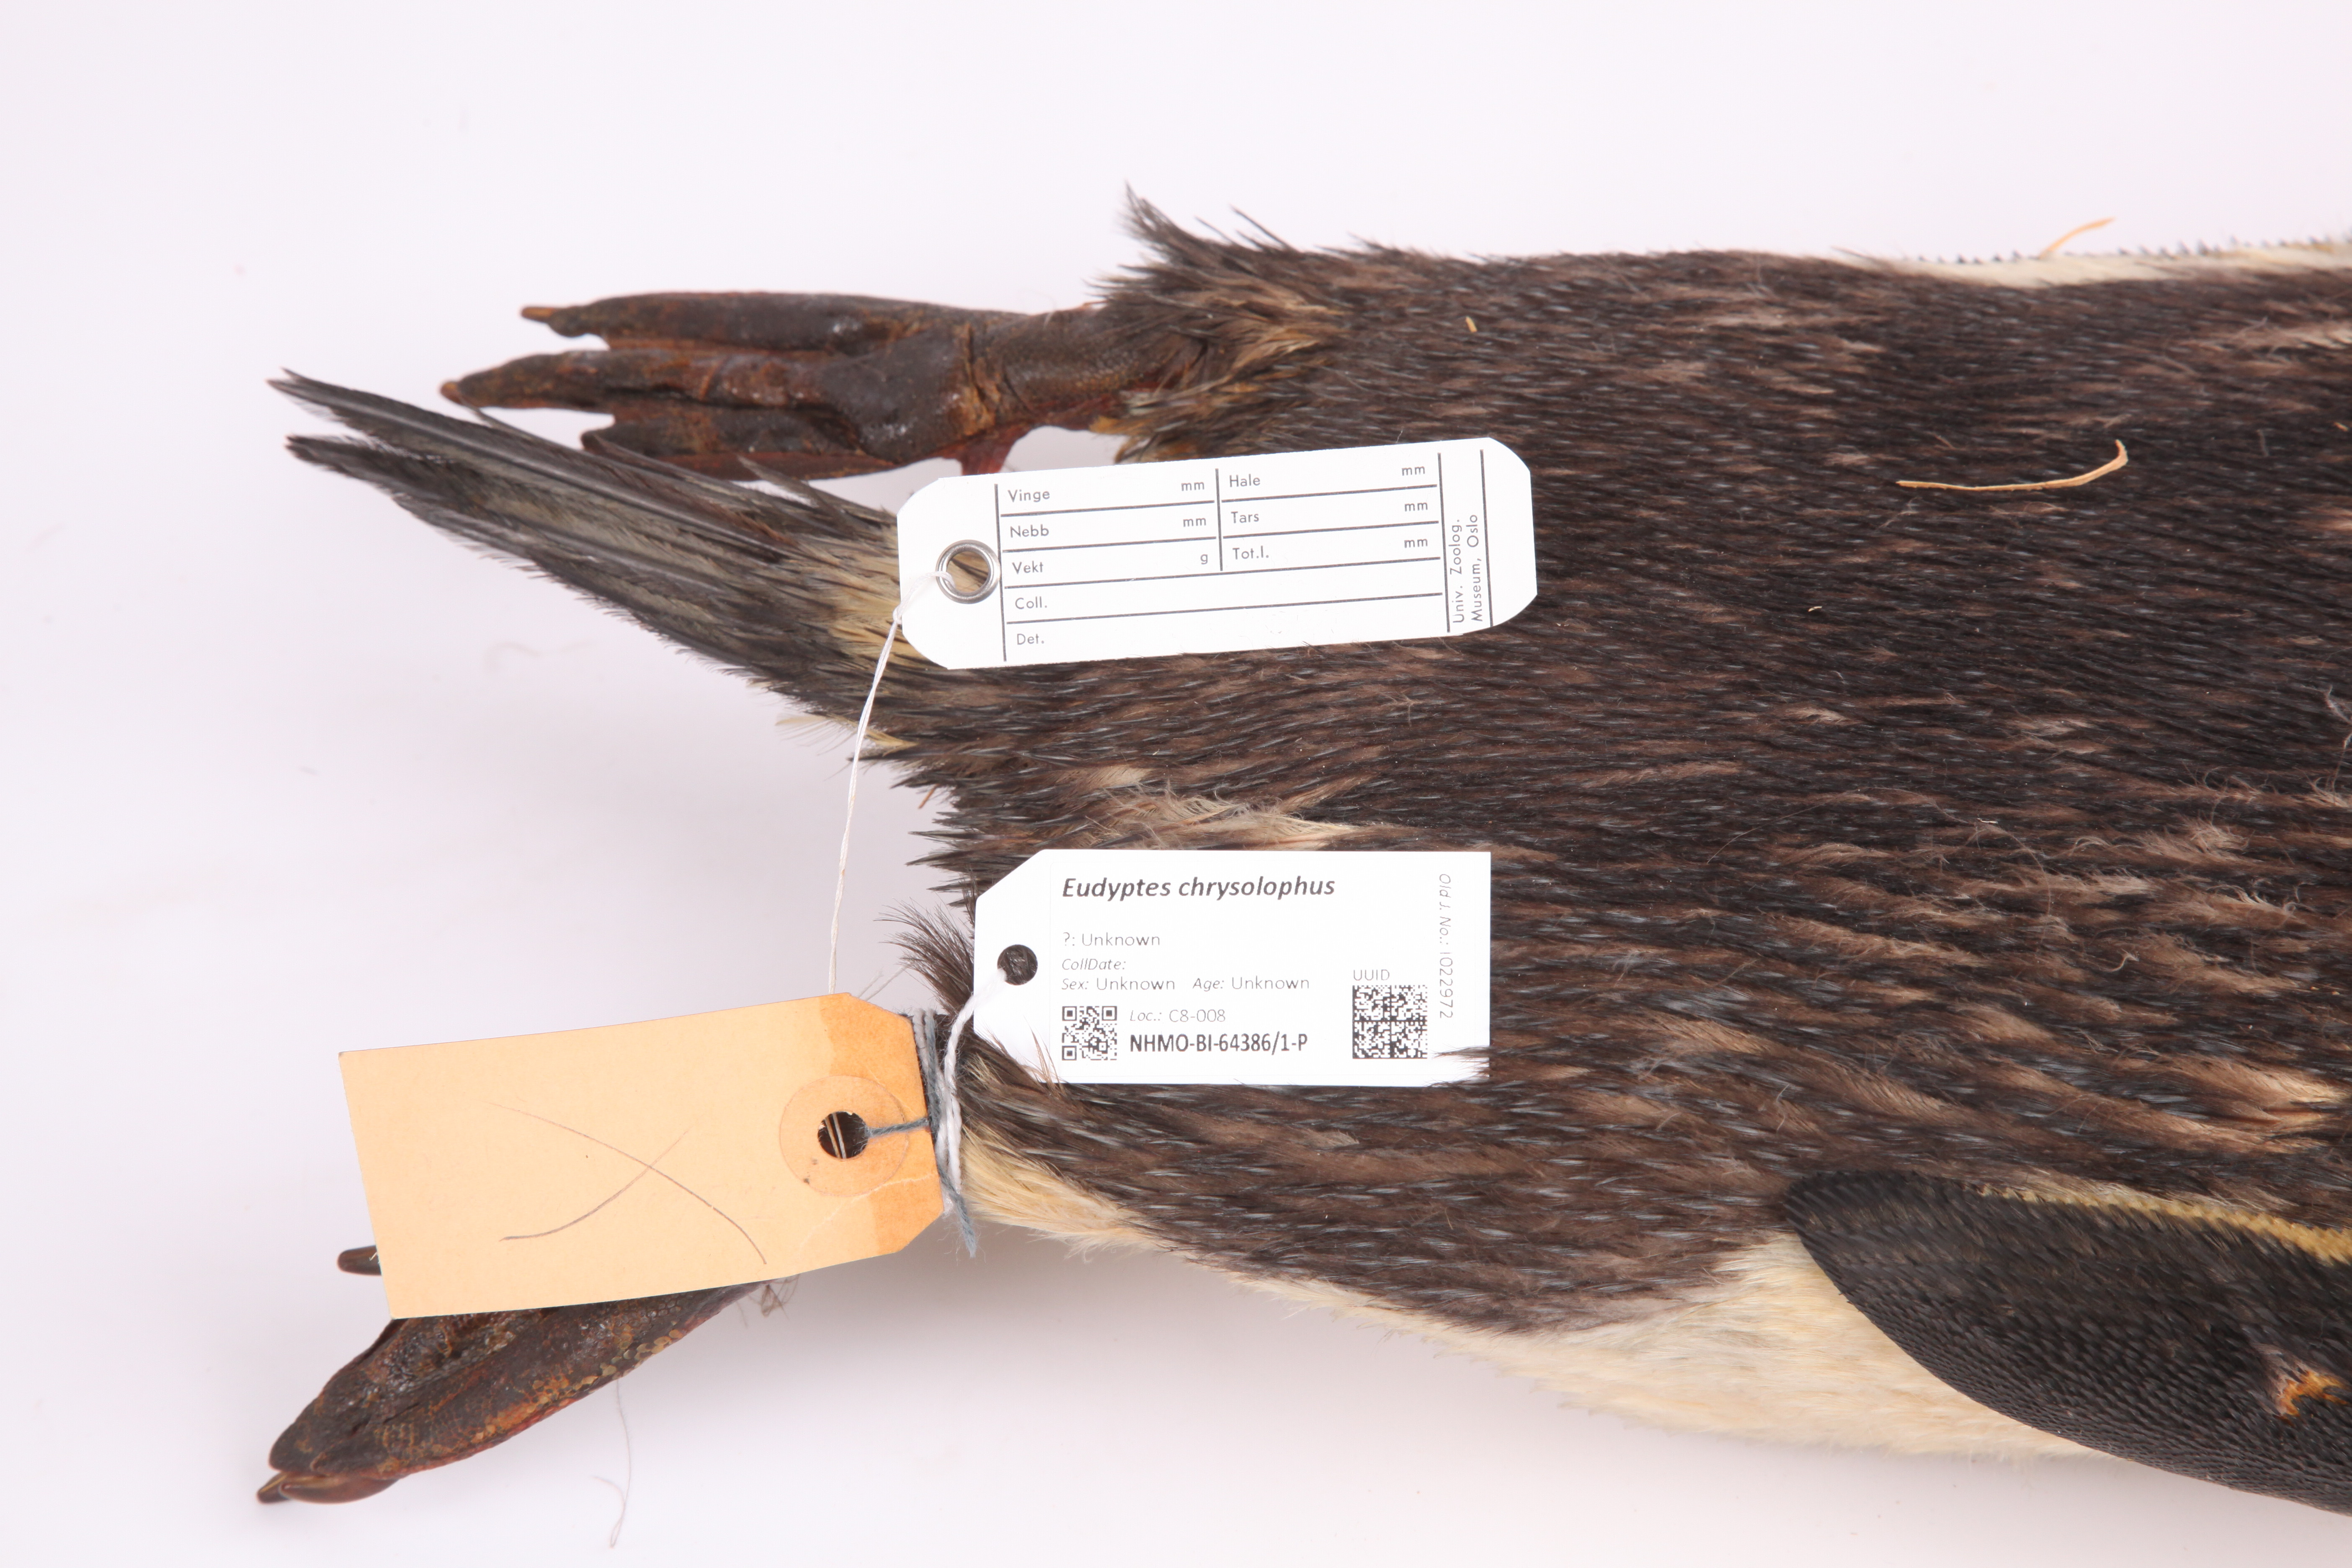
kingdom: Animalia
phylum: Chordata
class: Aves
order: Sphenisciformes
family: Spheniscidae
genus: Eudyptes
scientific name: Eudyptes chrysolophus
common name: Macaroni penguin
